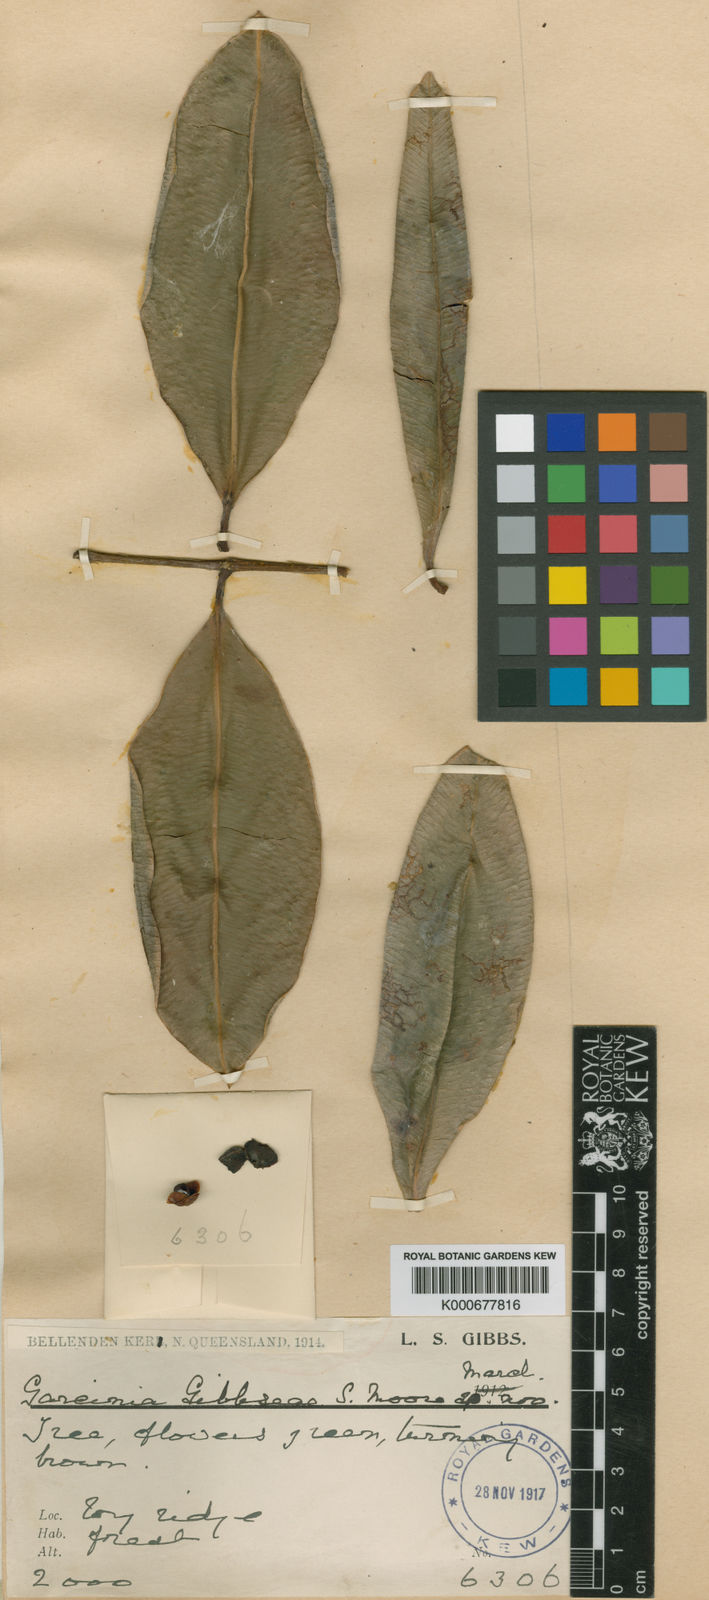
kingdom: Plantae
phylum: Tracheophyta
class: Magnoliopsida
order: Malpighiales
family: Clusiaceae
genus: Garcinia
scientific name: Garcinia gibbsiae
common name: Mountain mangosteen
